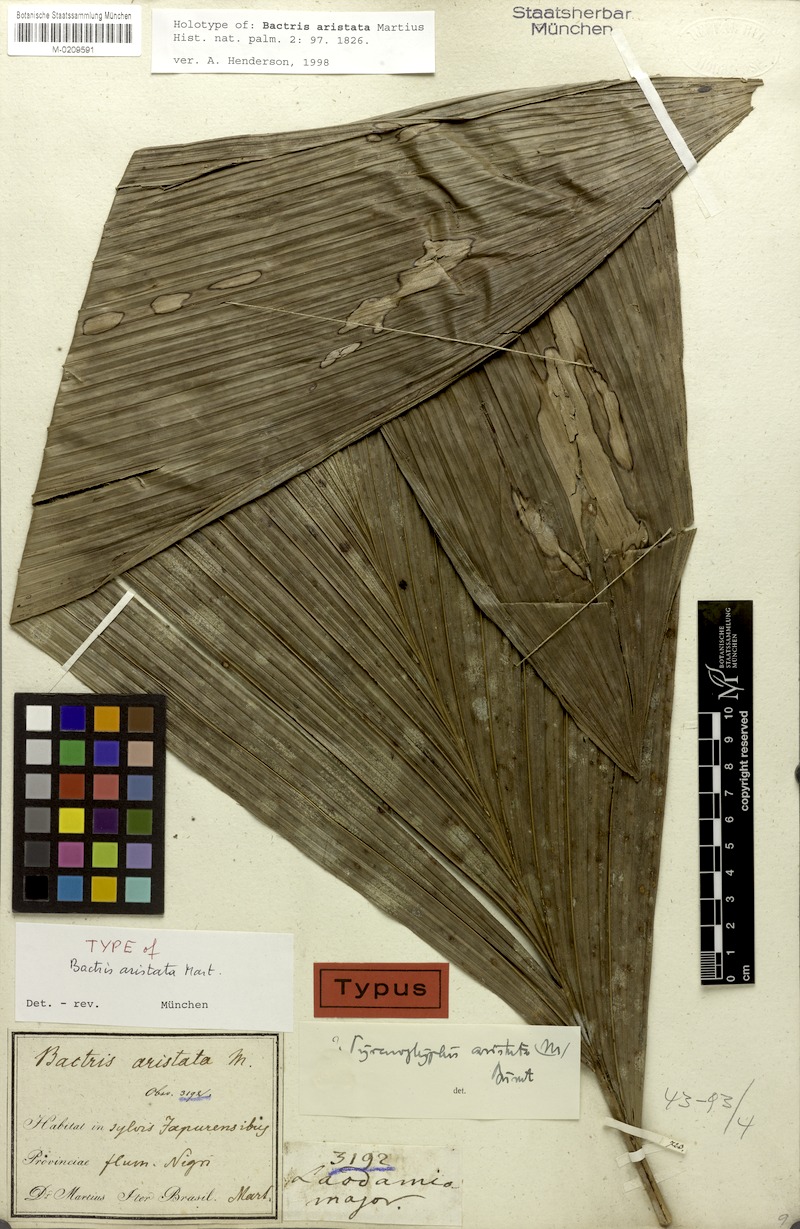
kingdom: Plantae
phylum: Tracheophyta
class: Liliopsida
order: Arecales
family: Arecaceae
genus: Bactris
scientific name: Bactris fissifrons
